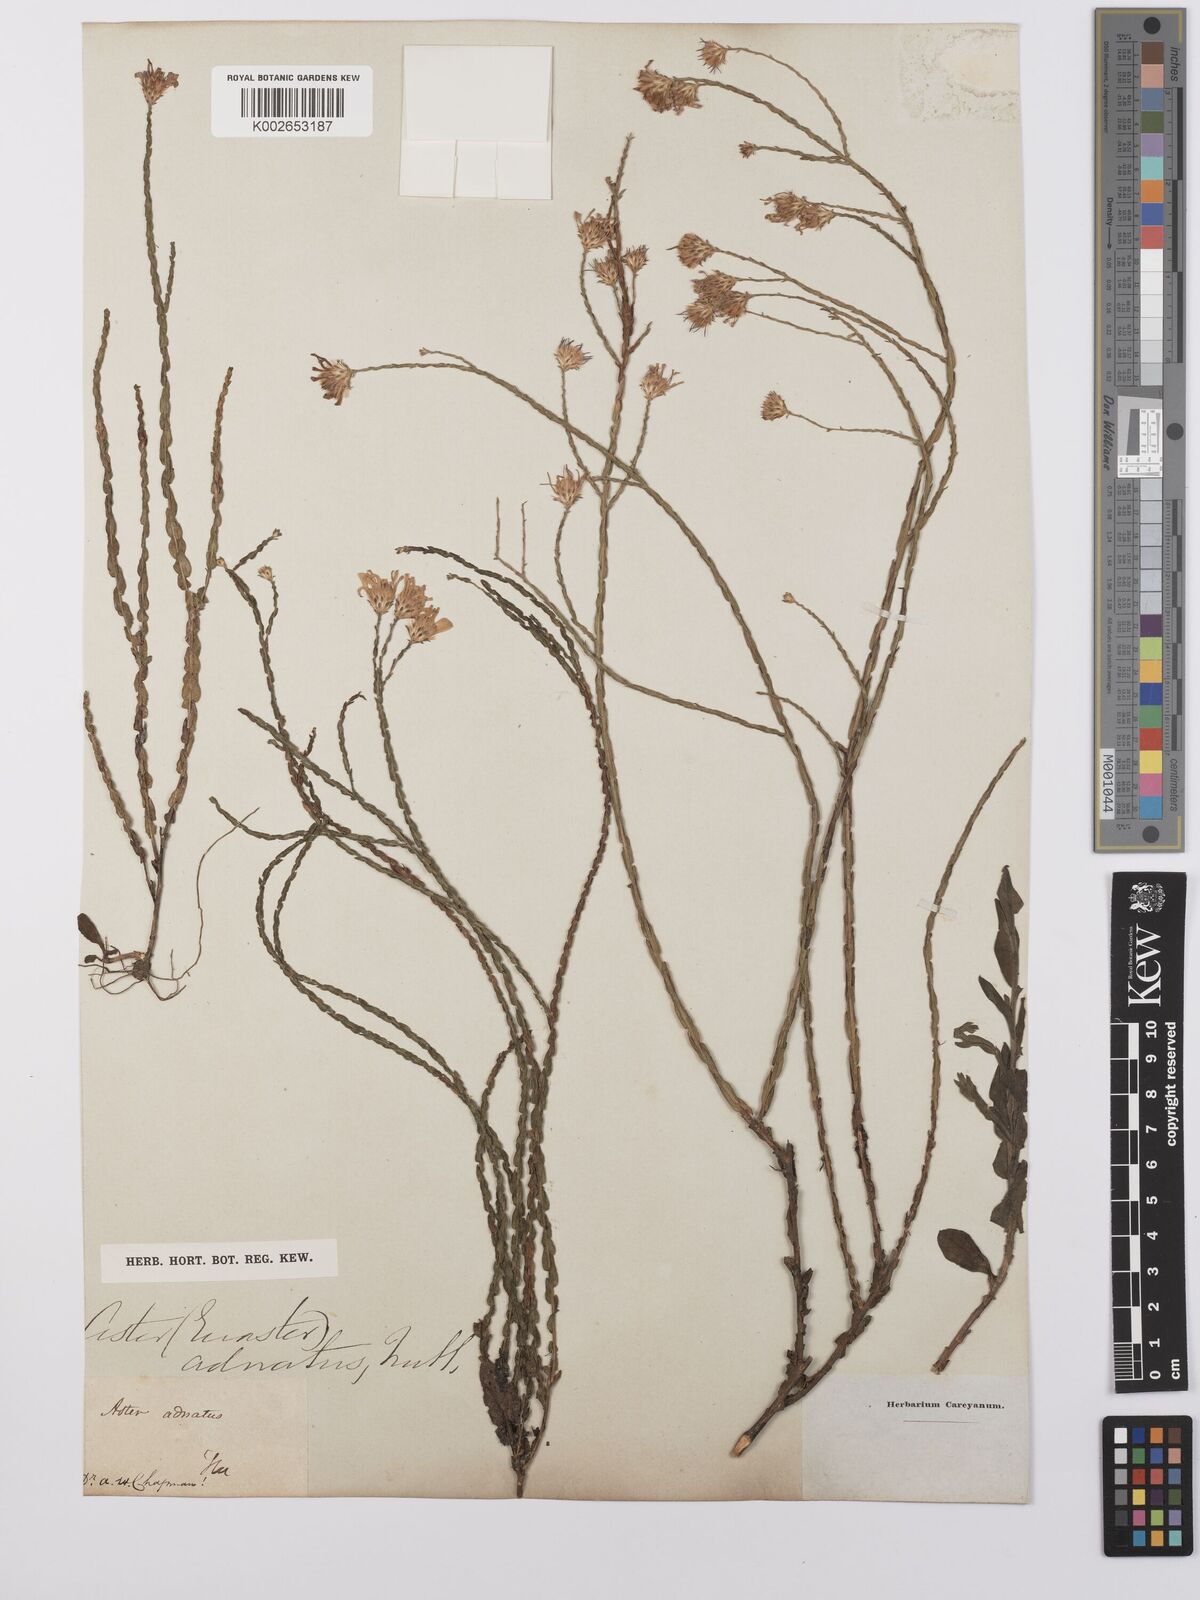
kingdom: Plantae
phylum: Tracheophyta
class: Magnoliopsida
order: Asterales
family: Asteraceae
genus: Symphyotrichum
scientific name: Symphyotrichum adnatum
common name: Scale-leaf aster
